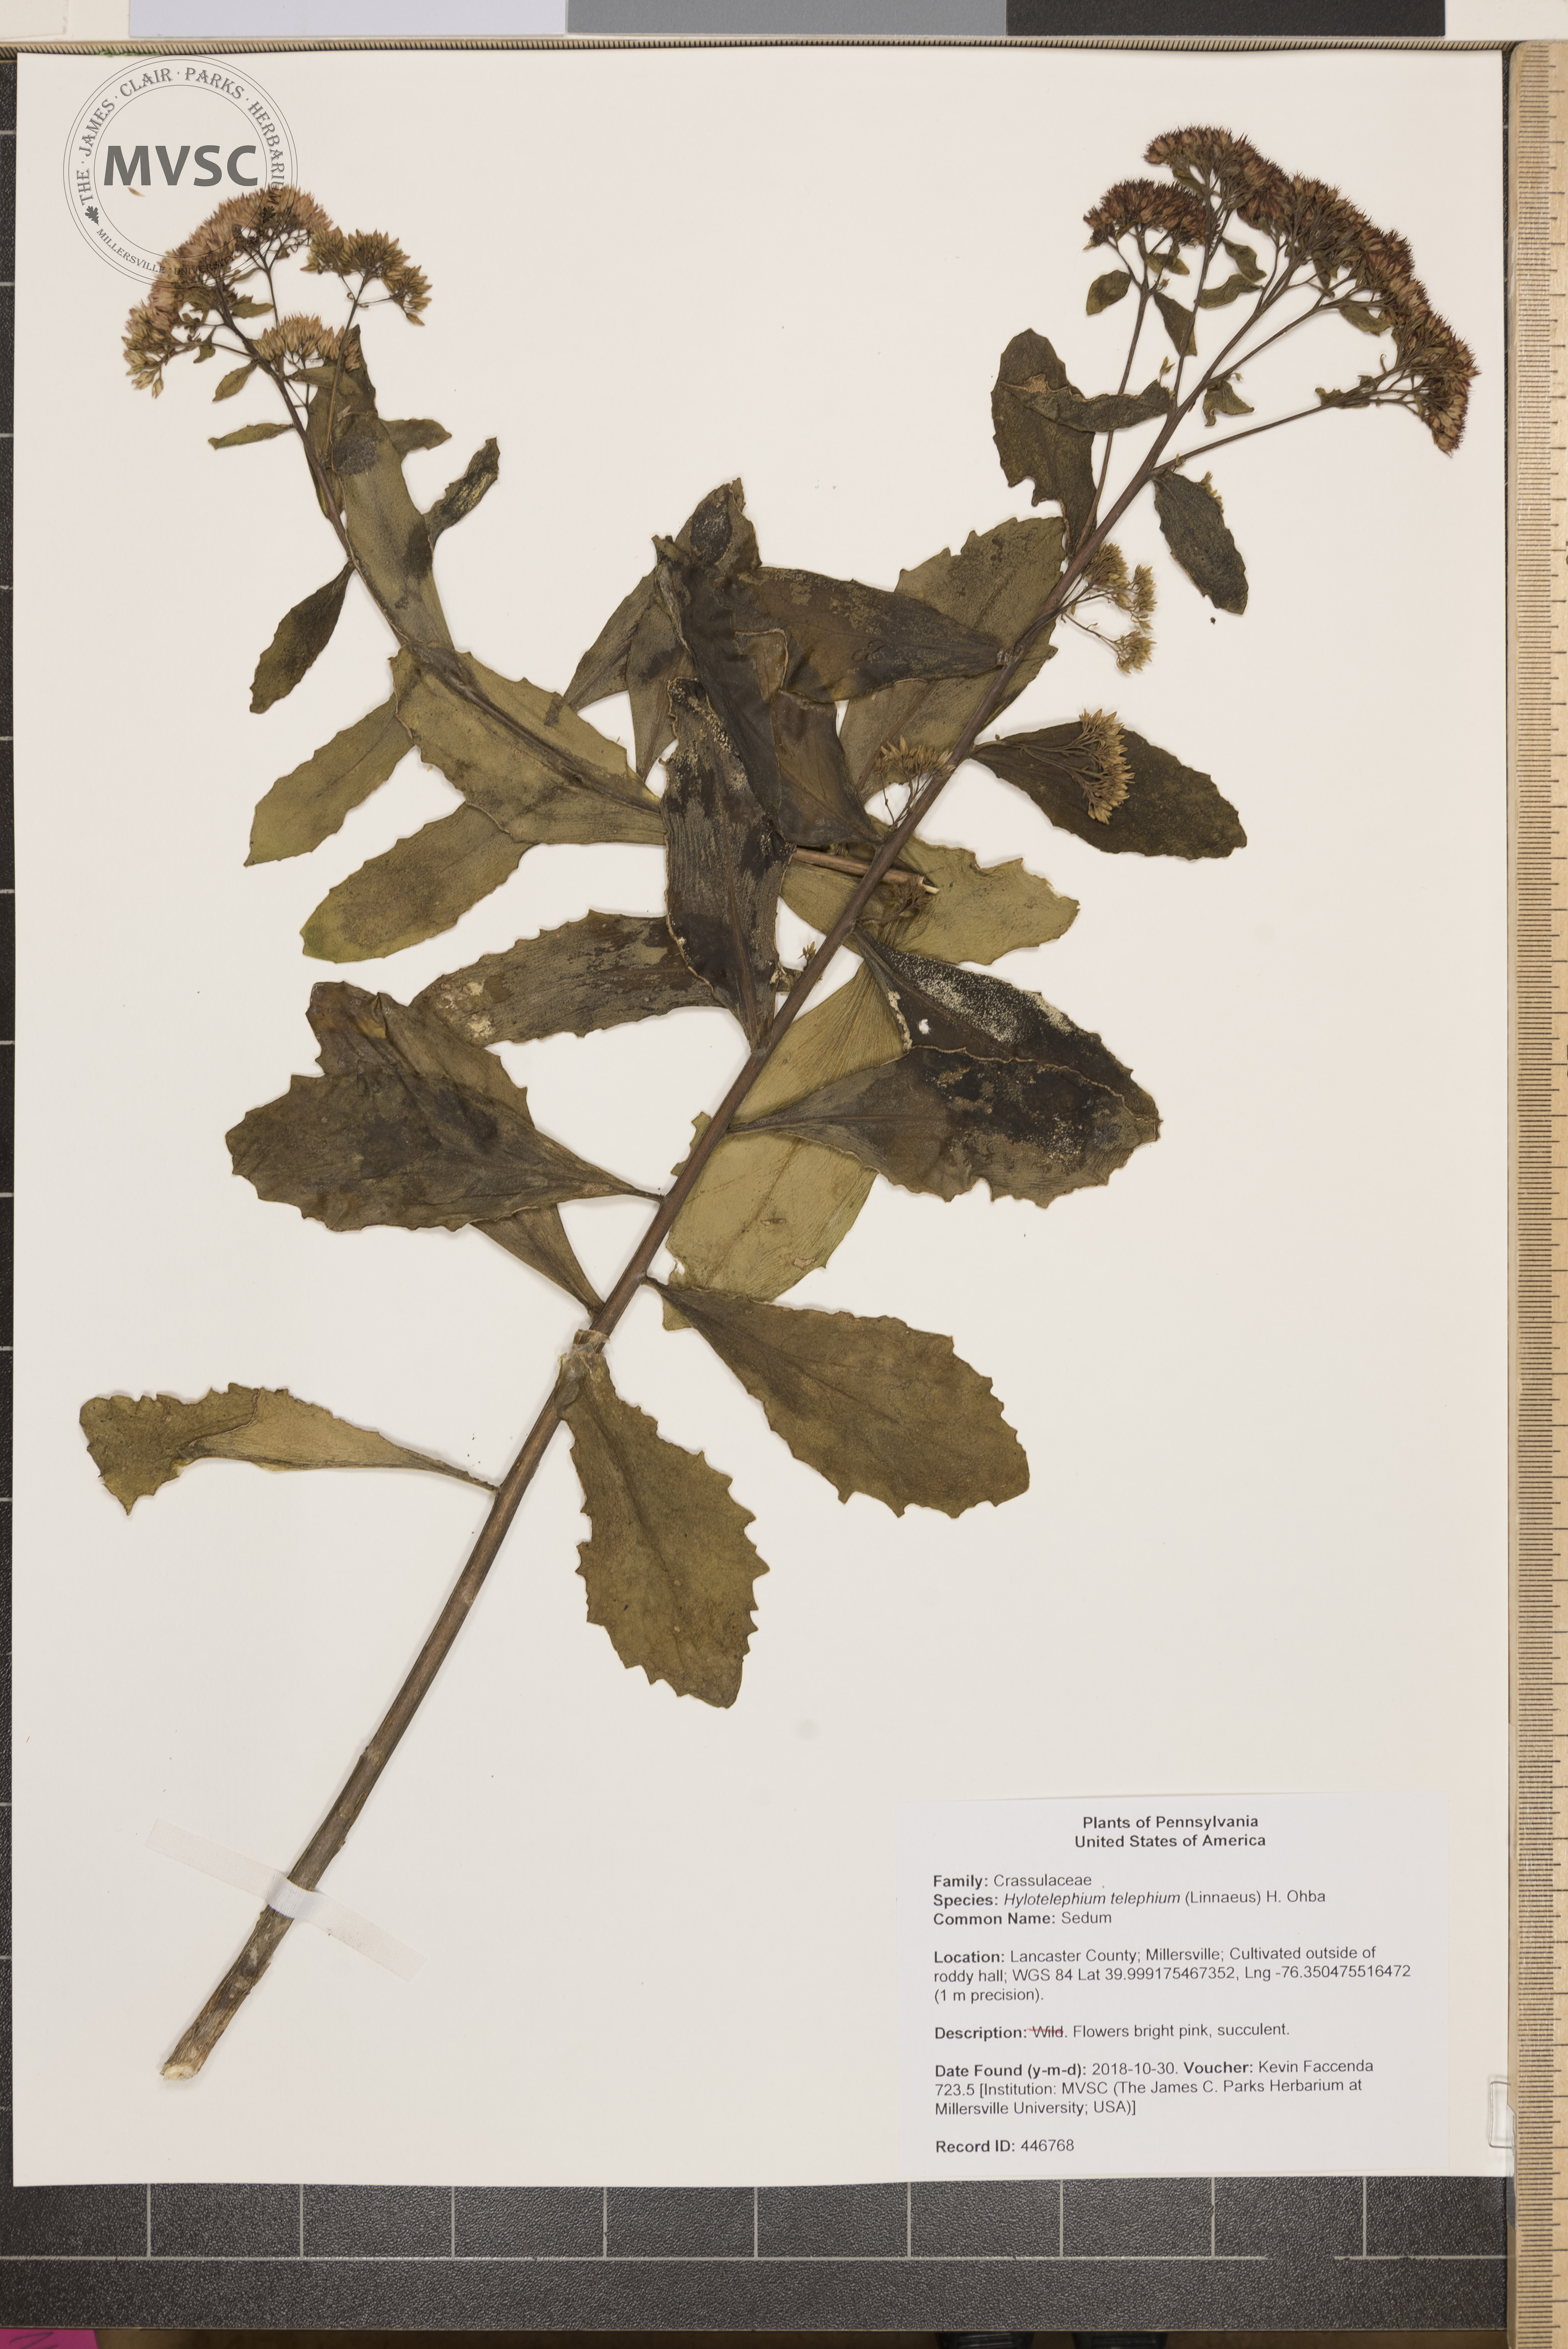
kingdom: Plantae
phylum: Tracheophyta
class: Magnoliopsida
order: Saxifragales
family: Crassulaceae
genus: Hylotelephium
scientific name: Hylotelephium telephium
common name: Sedum
